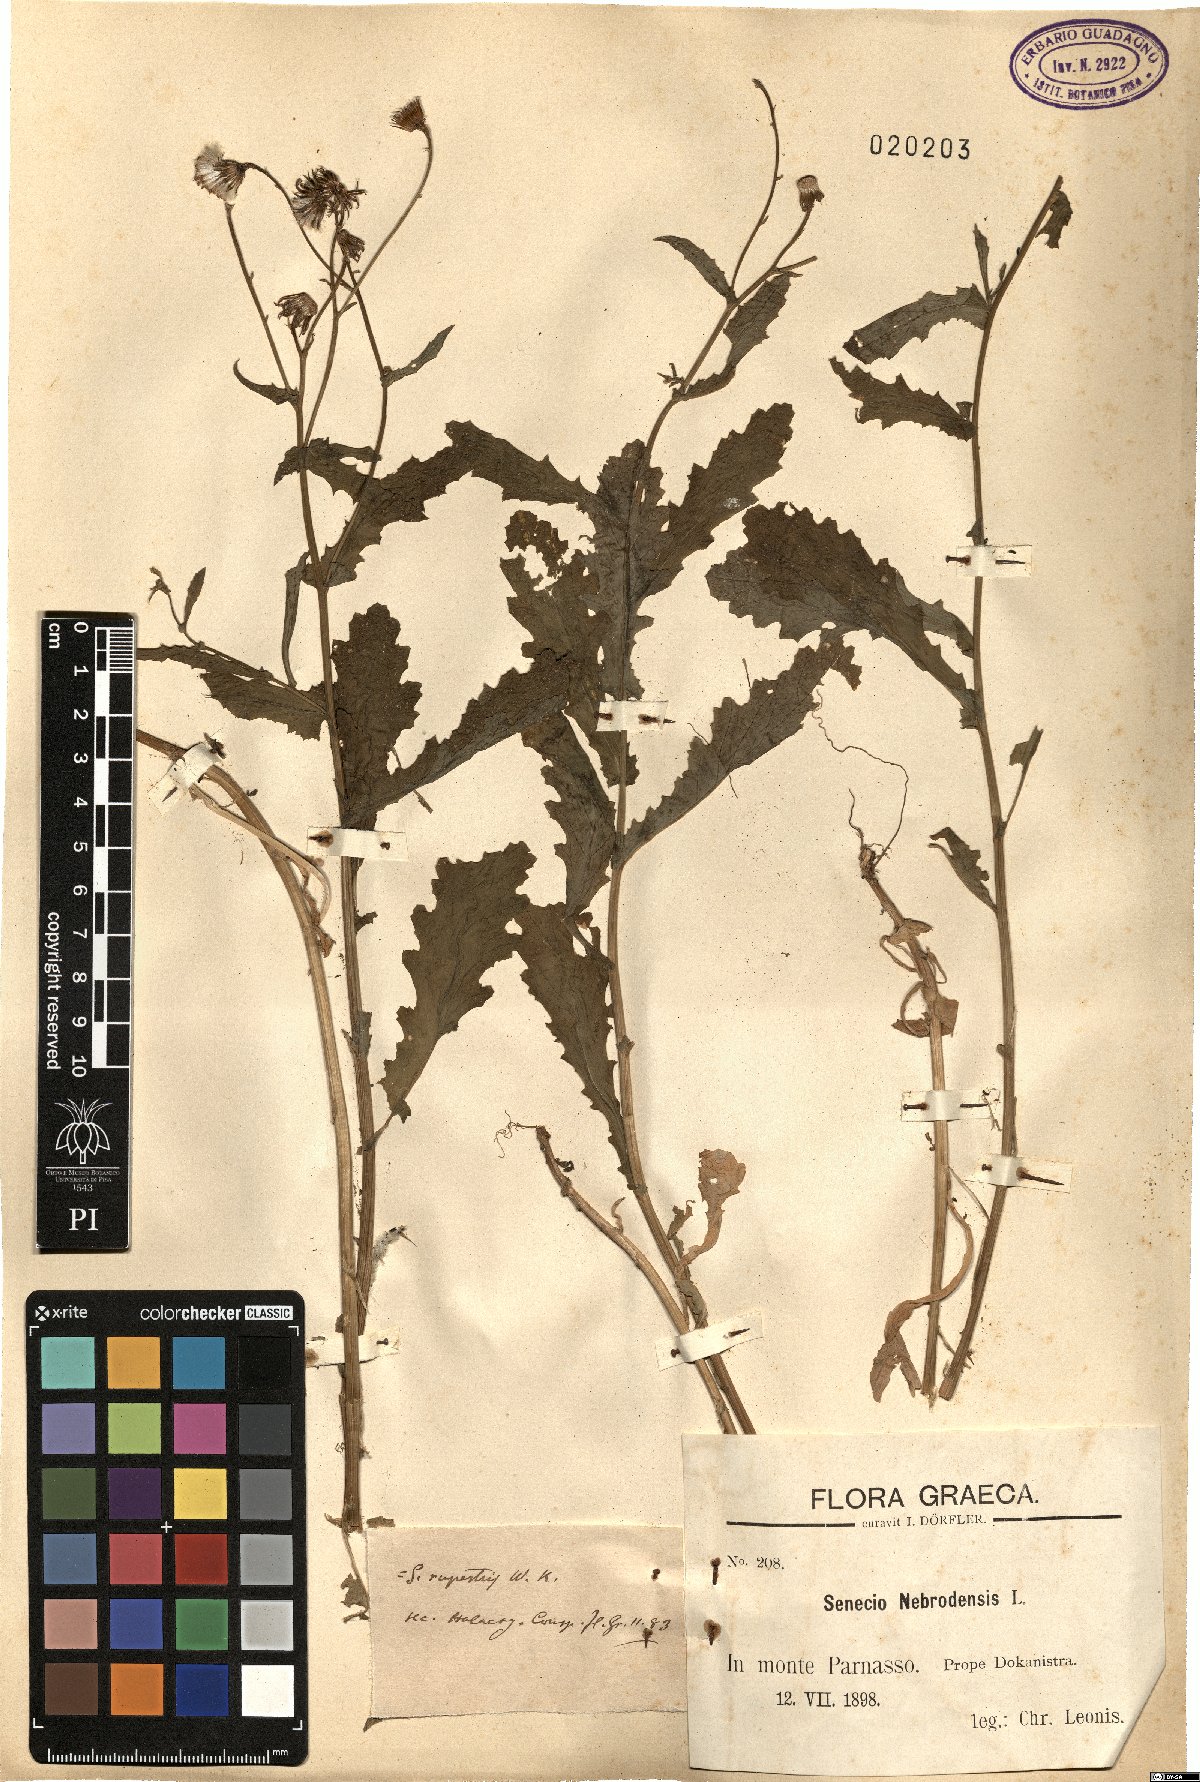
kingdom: Plantae
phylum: Tracheophyta
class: Magnoliopsida
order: Asterales
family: Asteraceae
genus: Senecio
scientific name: Senecio rupestris
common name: Rock ragwort
